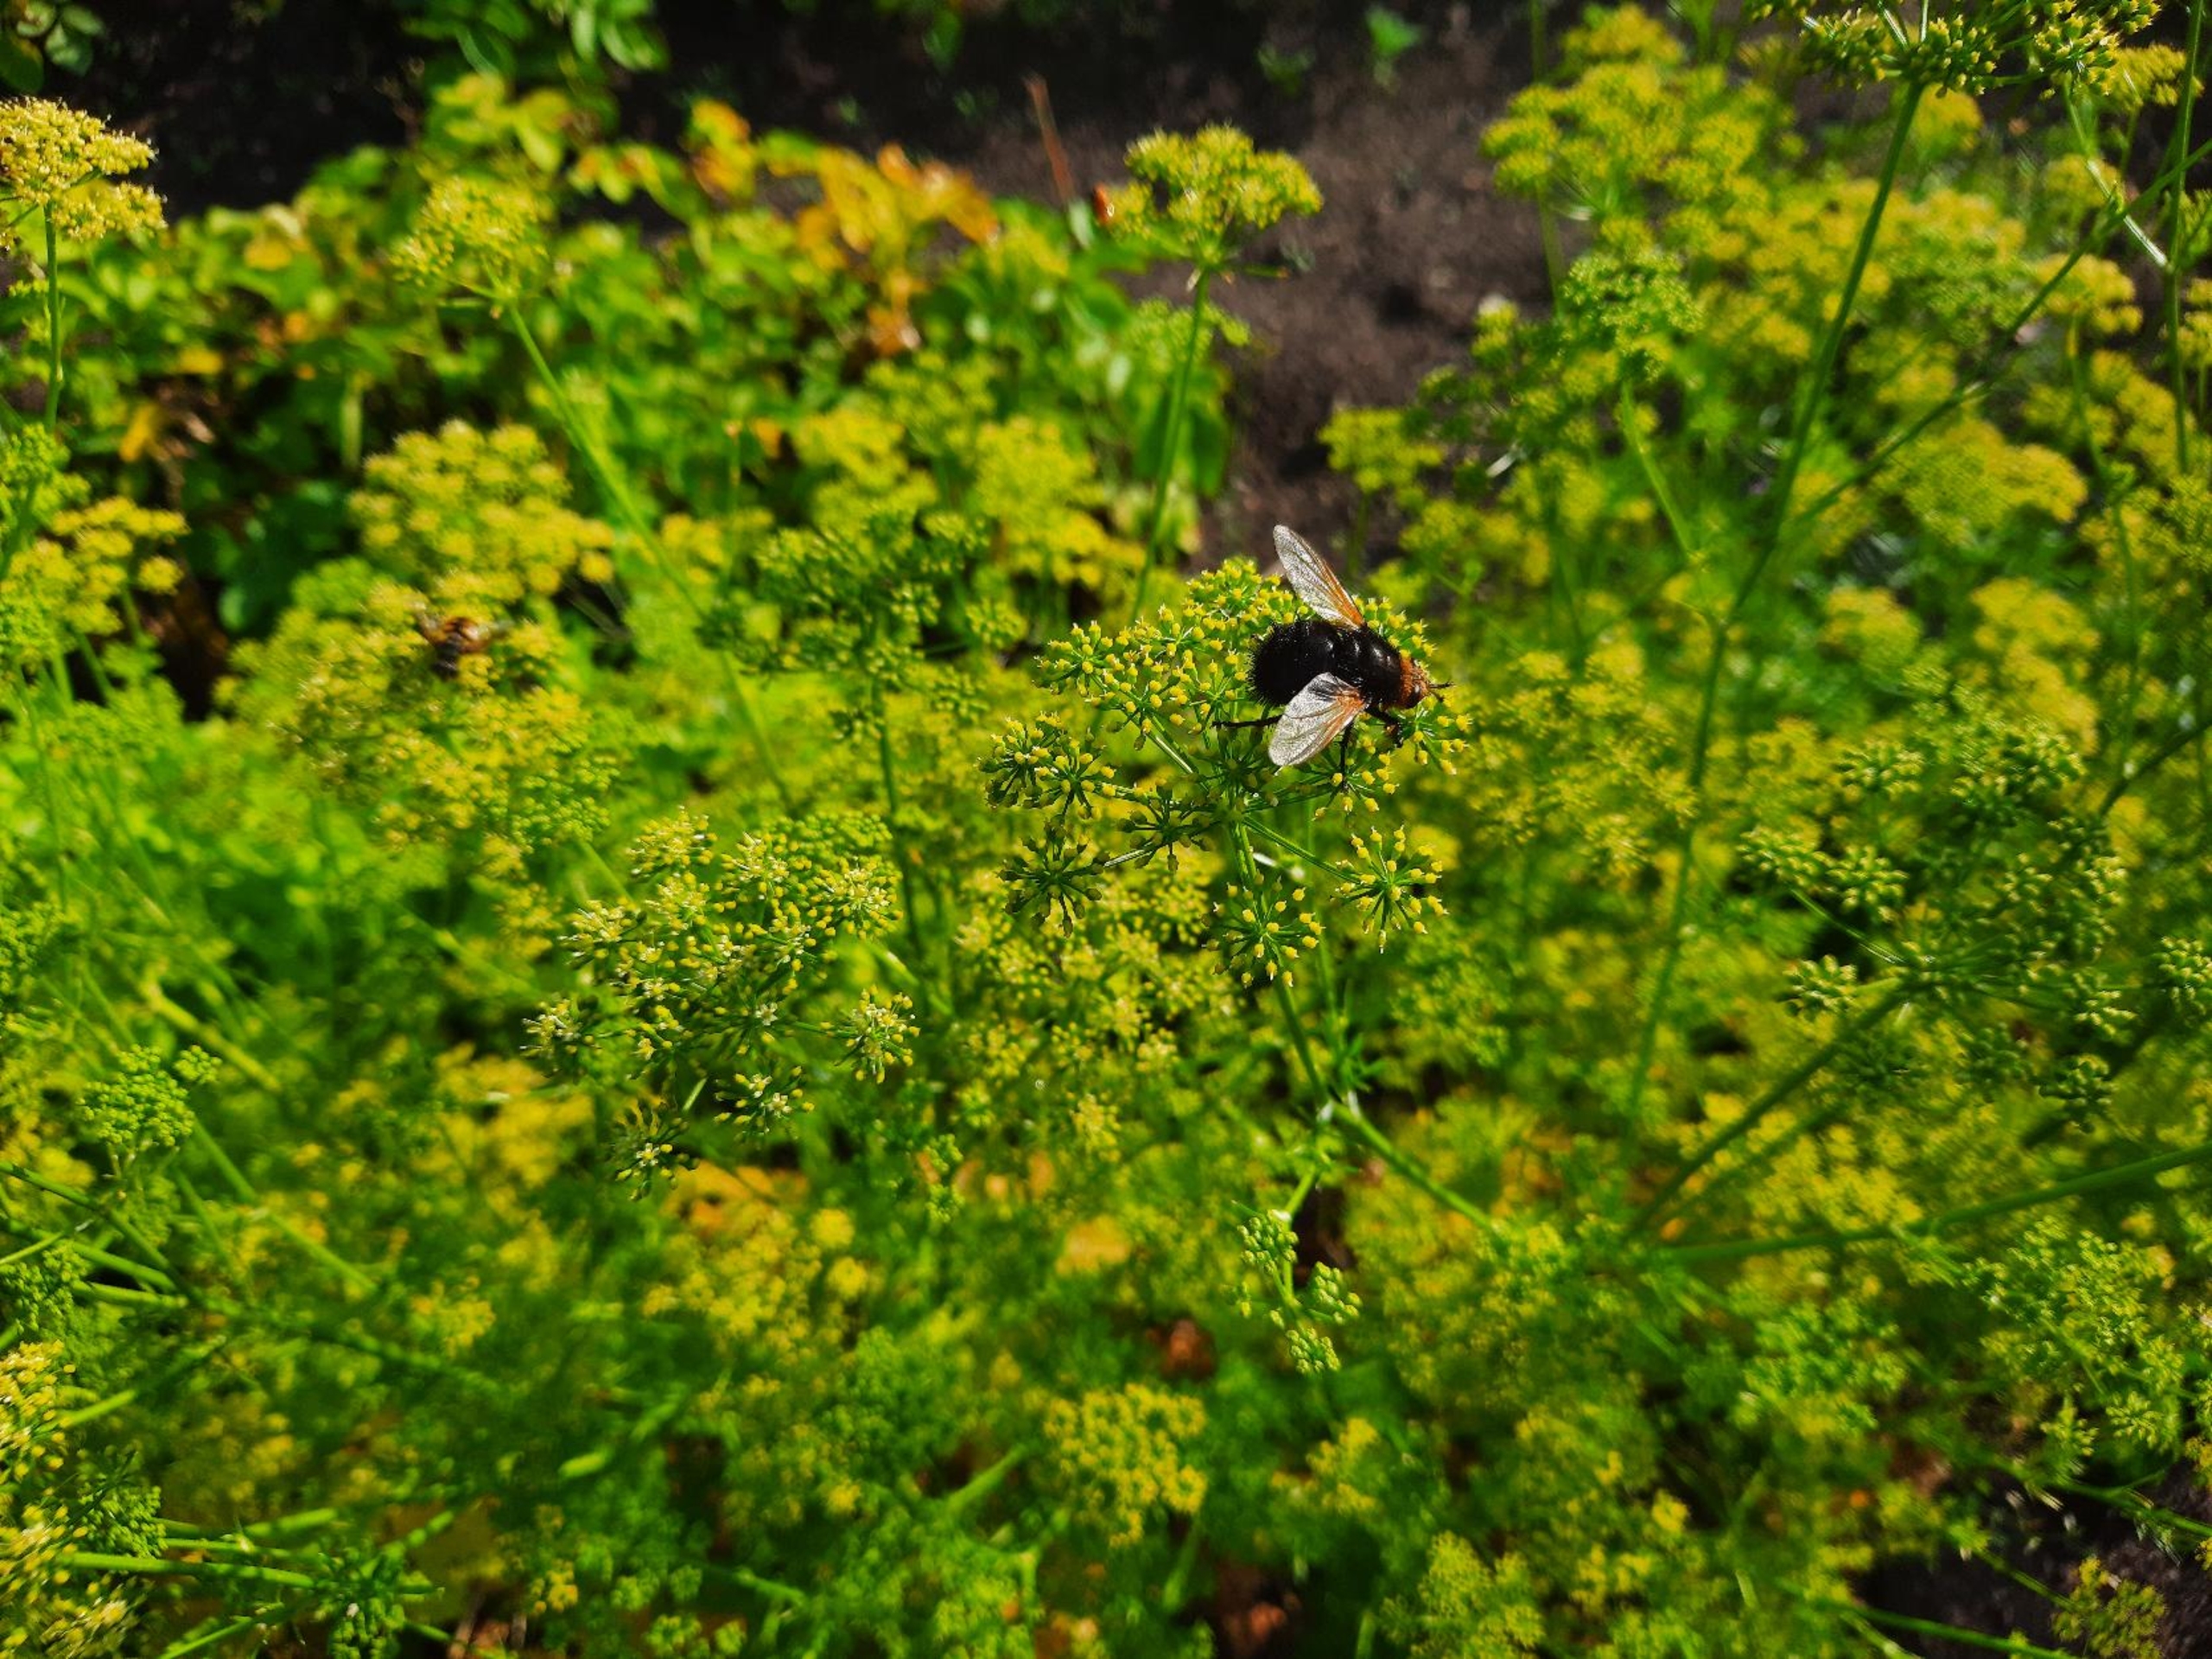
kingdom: Animalia
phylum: Arthropoda
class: Insecta
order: Diptera
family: Tachinidae
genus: Tachina
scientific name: Tachina grossa
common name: Kæmpefluen Harald
